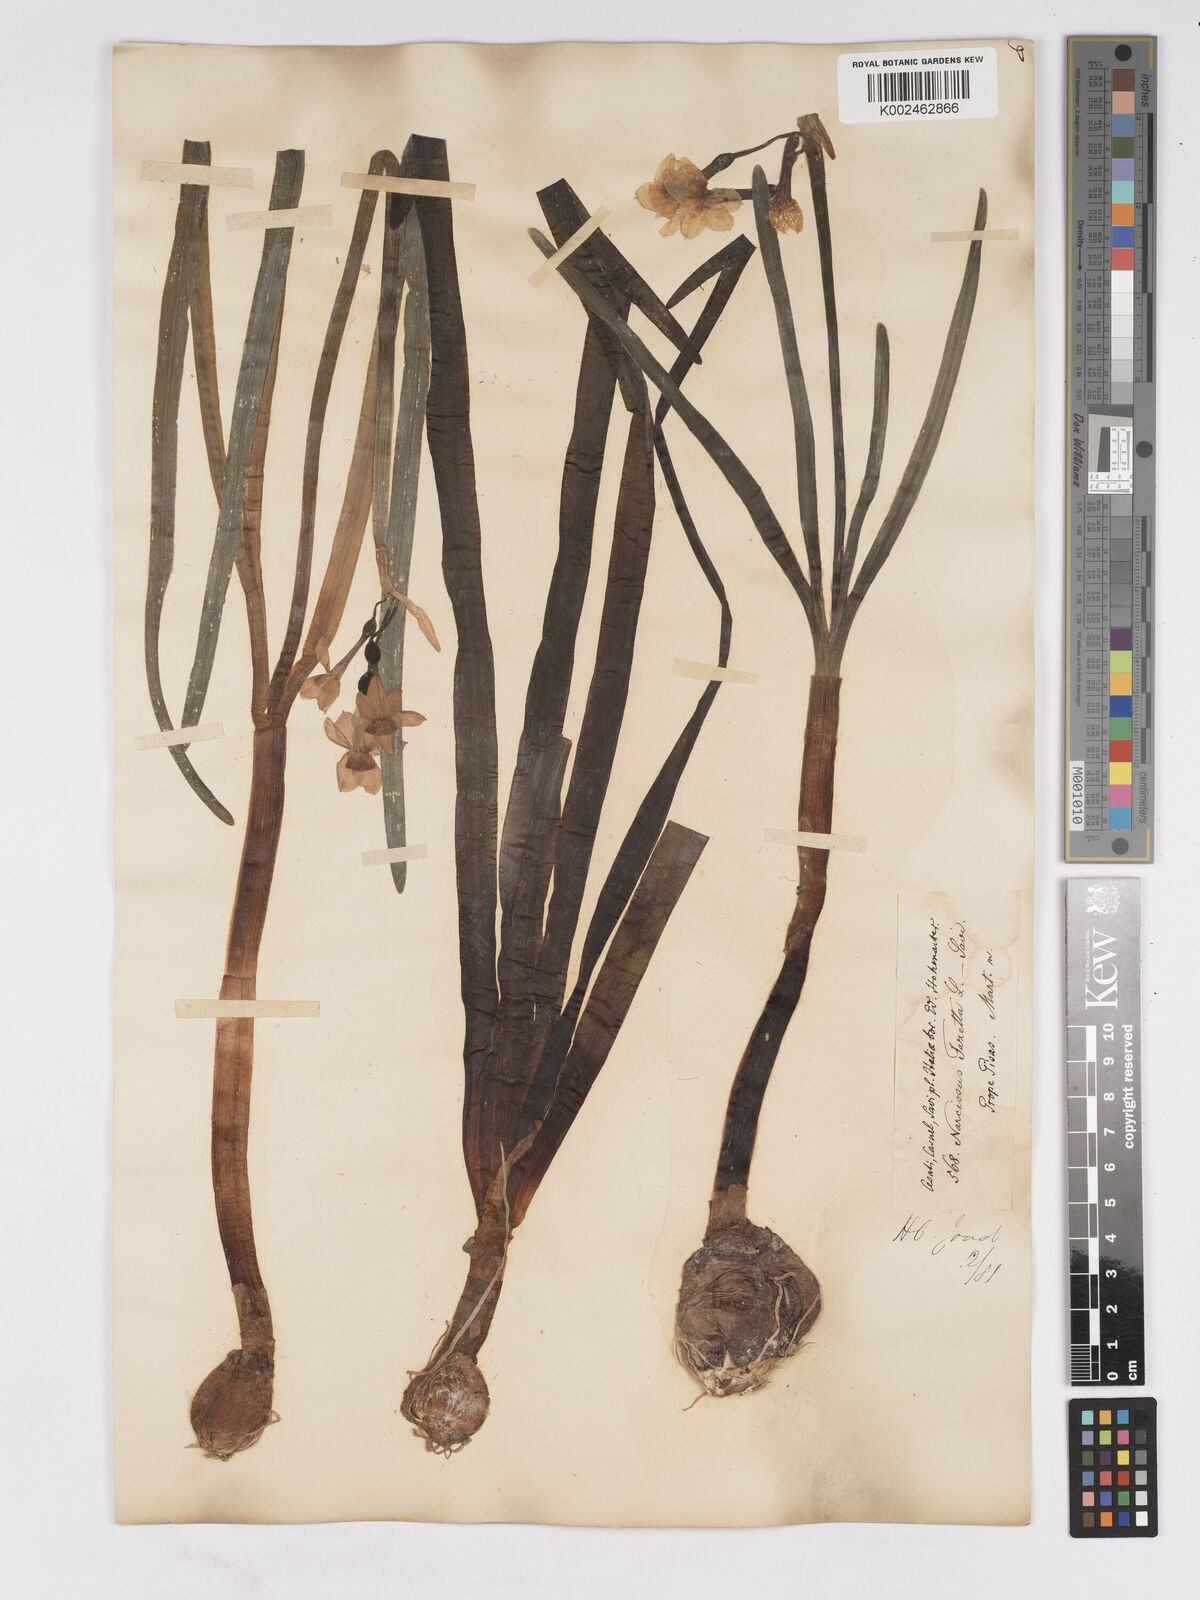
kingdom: Plantae
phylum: Tracheophyta
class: Liliopsida
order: Asparagales
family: Amaryllidaceae
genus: Narcissus
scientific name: Narcissus tazetta
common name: Bunch-flowered daffodil
